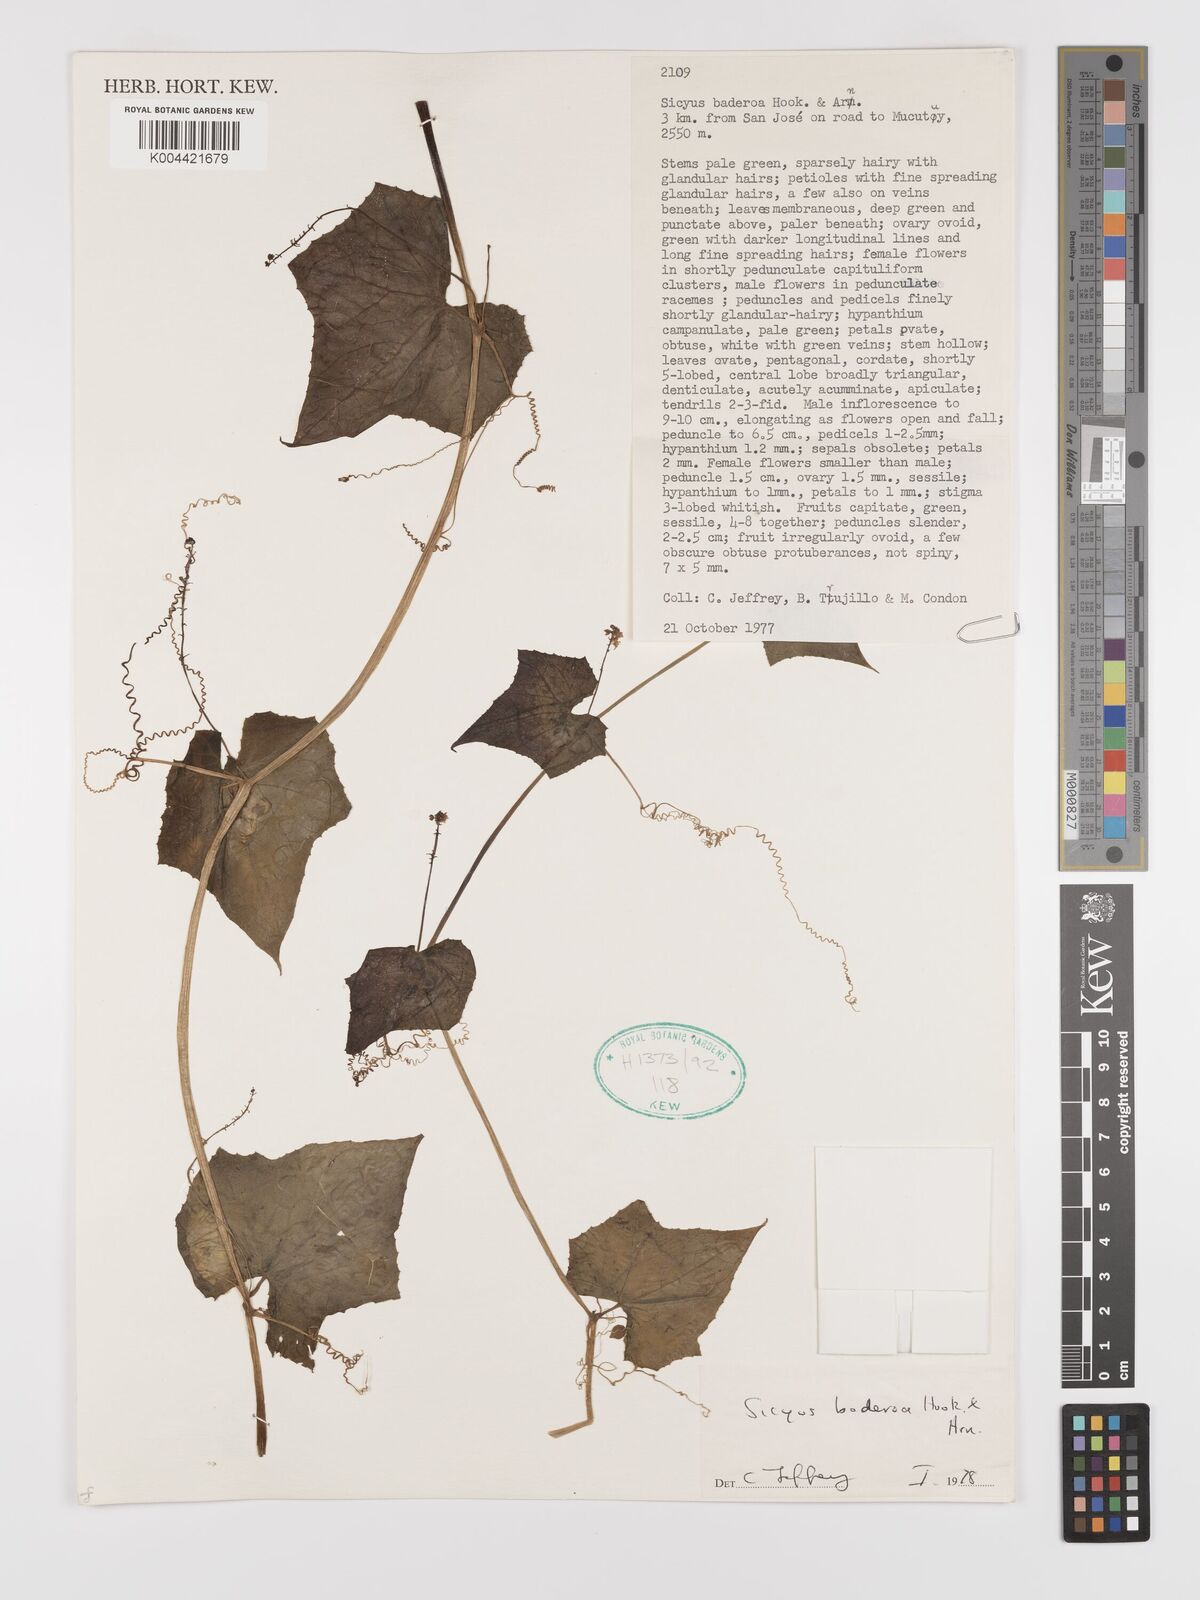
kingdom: Plantae
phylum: Tracheophyta
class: Magnoliopsida
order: Cucurbitales
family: Cucurbitaceae
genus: Sicyos
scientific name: Sicyos baderoa
